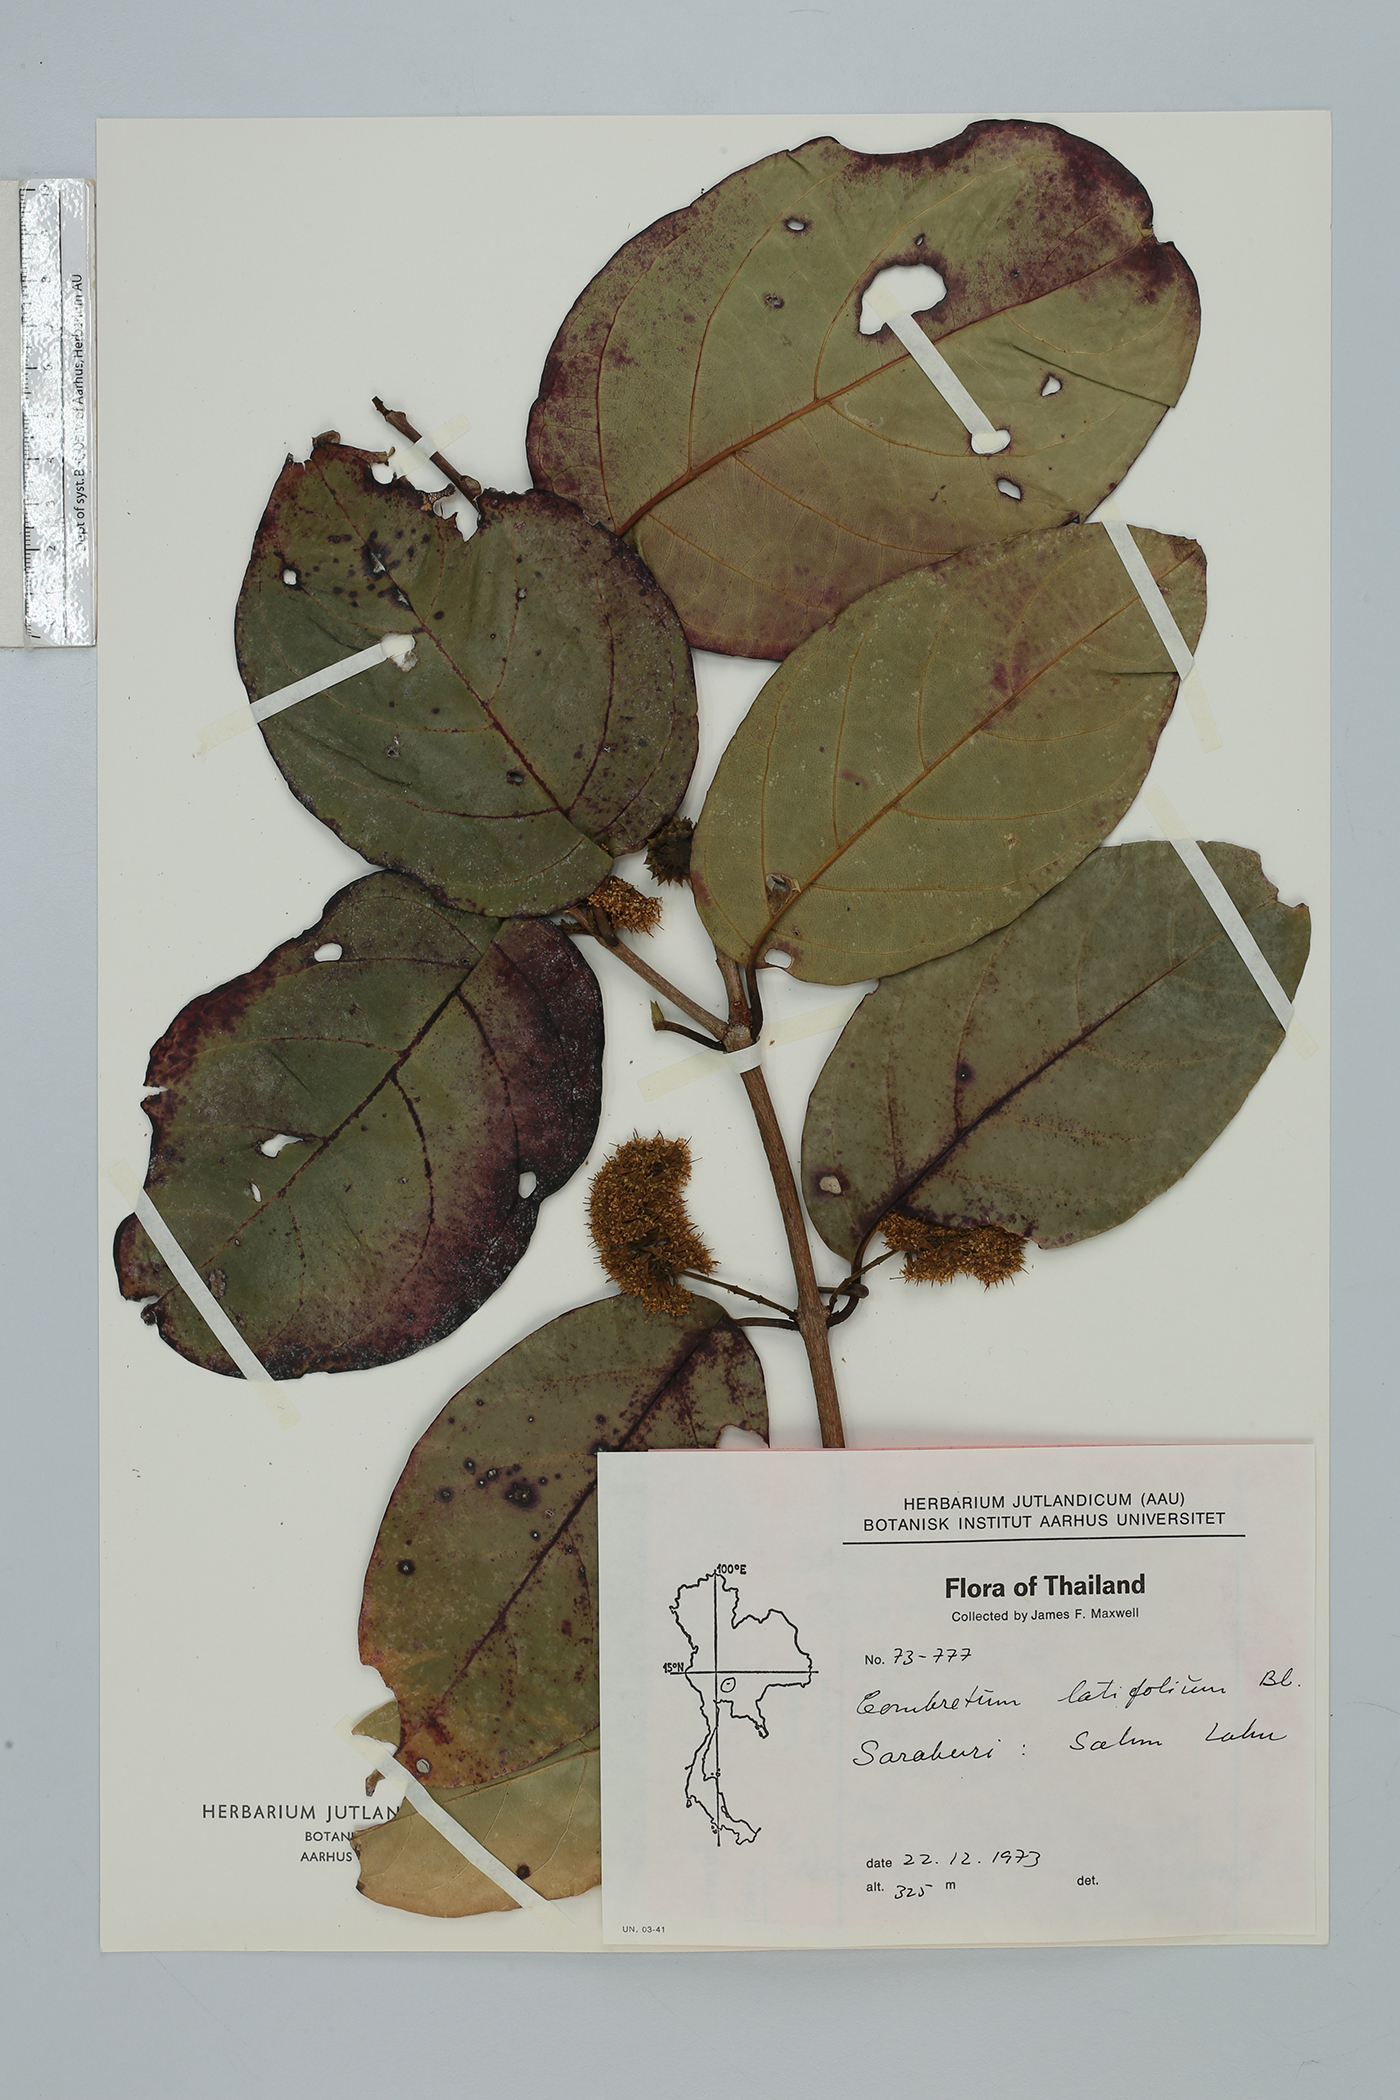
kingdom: Plantae
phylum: Tracheophyta
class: Magnoliopsida
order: Myrtales
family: Combretaceae
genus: Combretum
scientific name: Combretum latifolium
